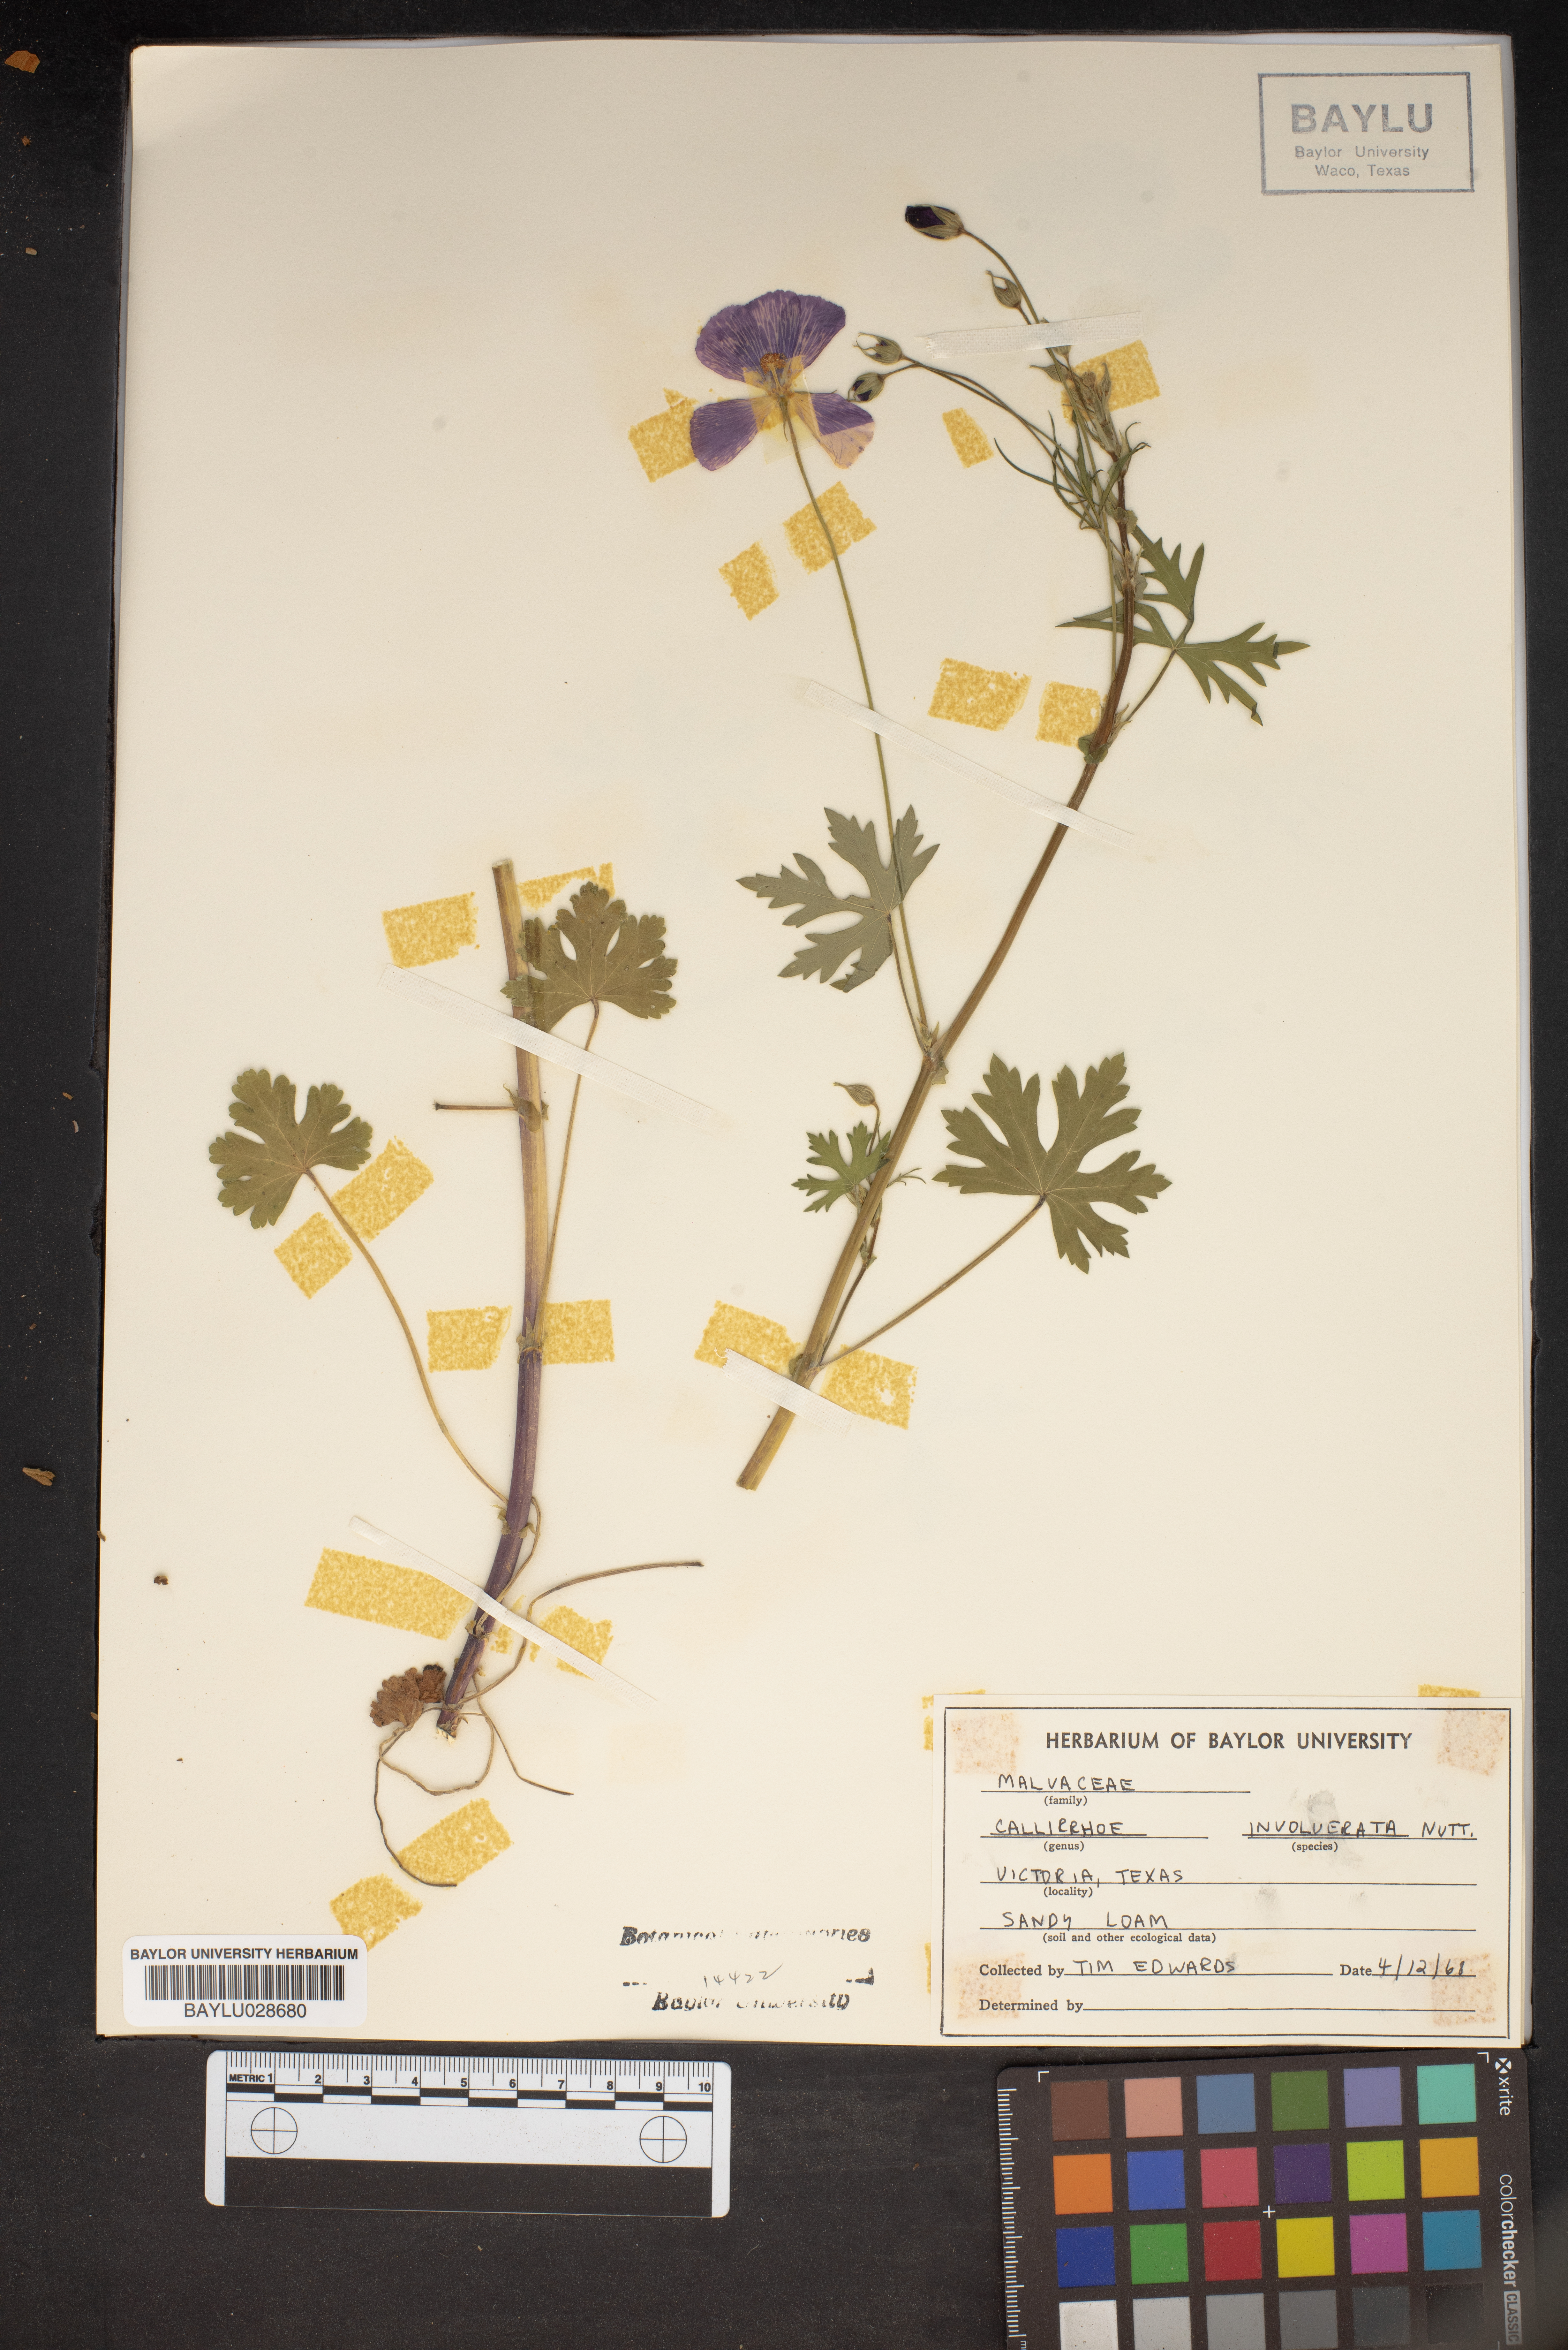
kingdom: Plantae
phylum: Tracheophyta
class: Magnoliopsida
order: Malvales
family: Malvaceae
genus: Callirhoe
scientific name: Callirhoe involucrata
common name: Purple poppy-mallow
